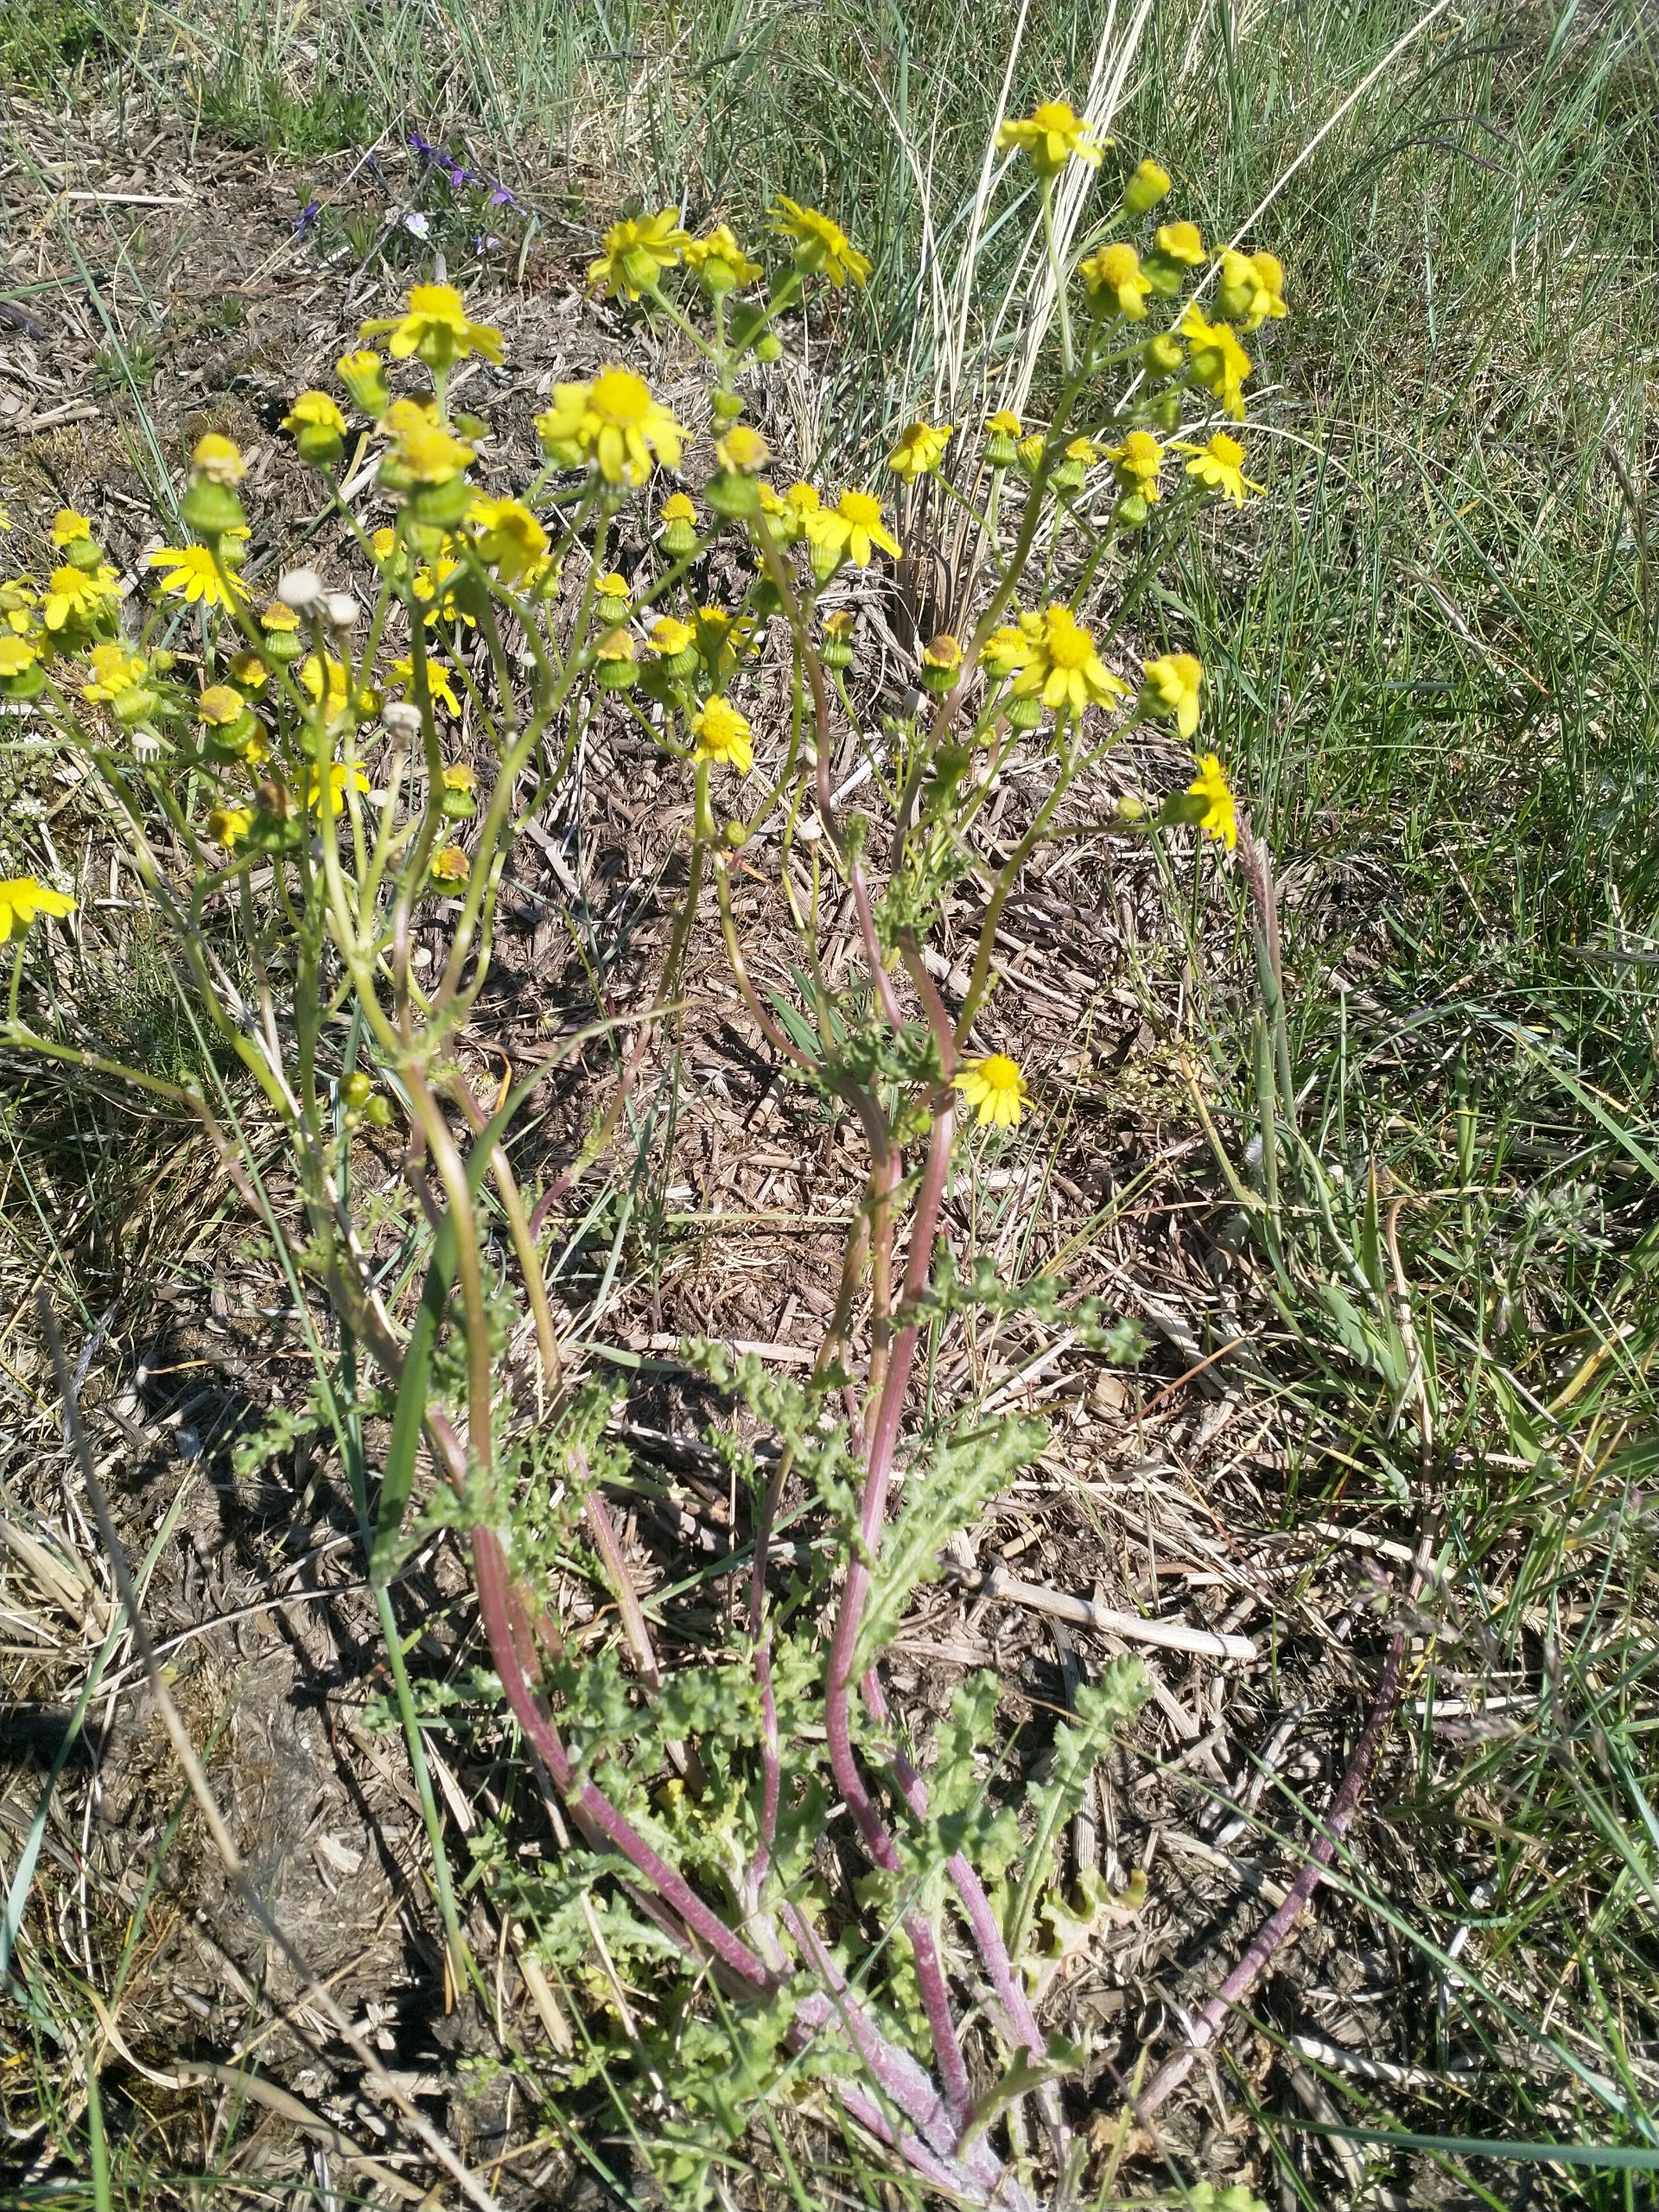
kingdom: Plantae
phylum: Tracheophyta
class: Magnoliopsida
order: Asterales
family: Asteraceae
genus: Senecio
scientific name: Senecio leucanthemifolius
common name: Vår-brandbæger
